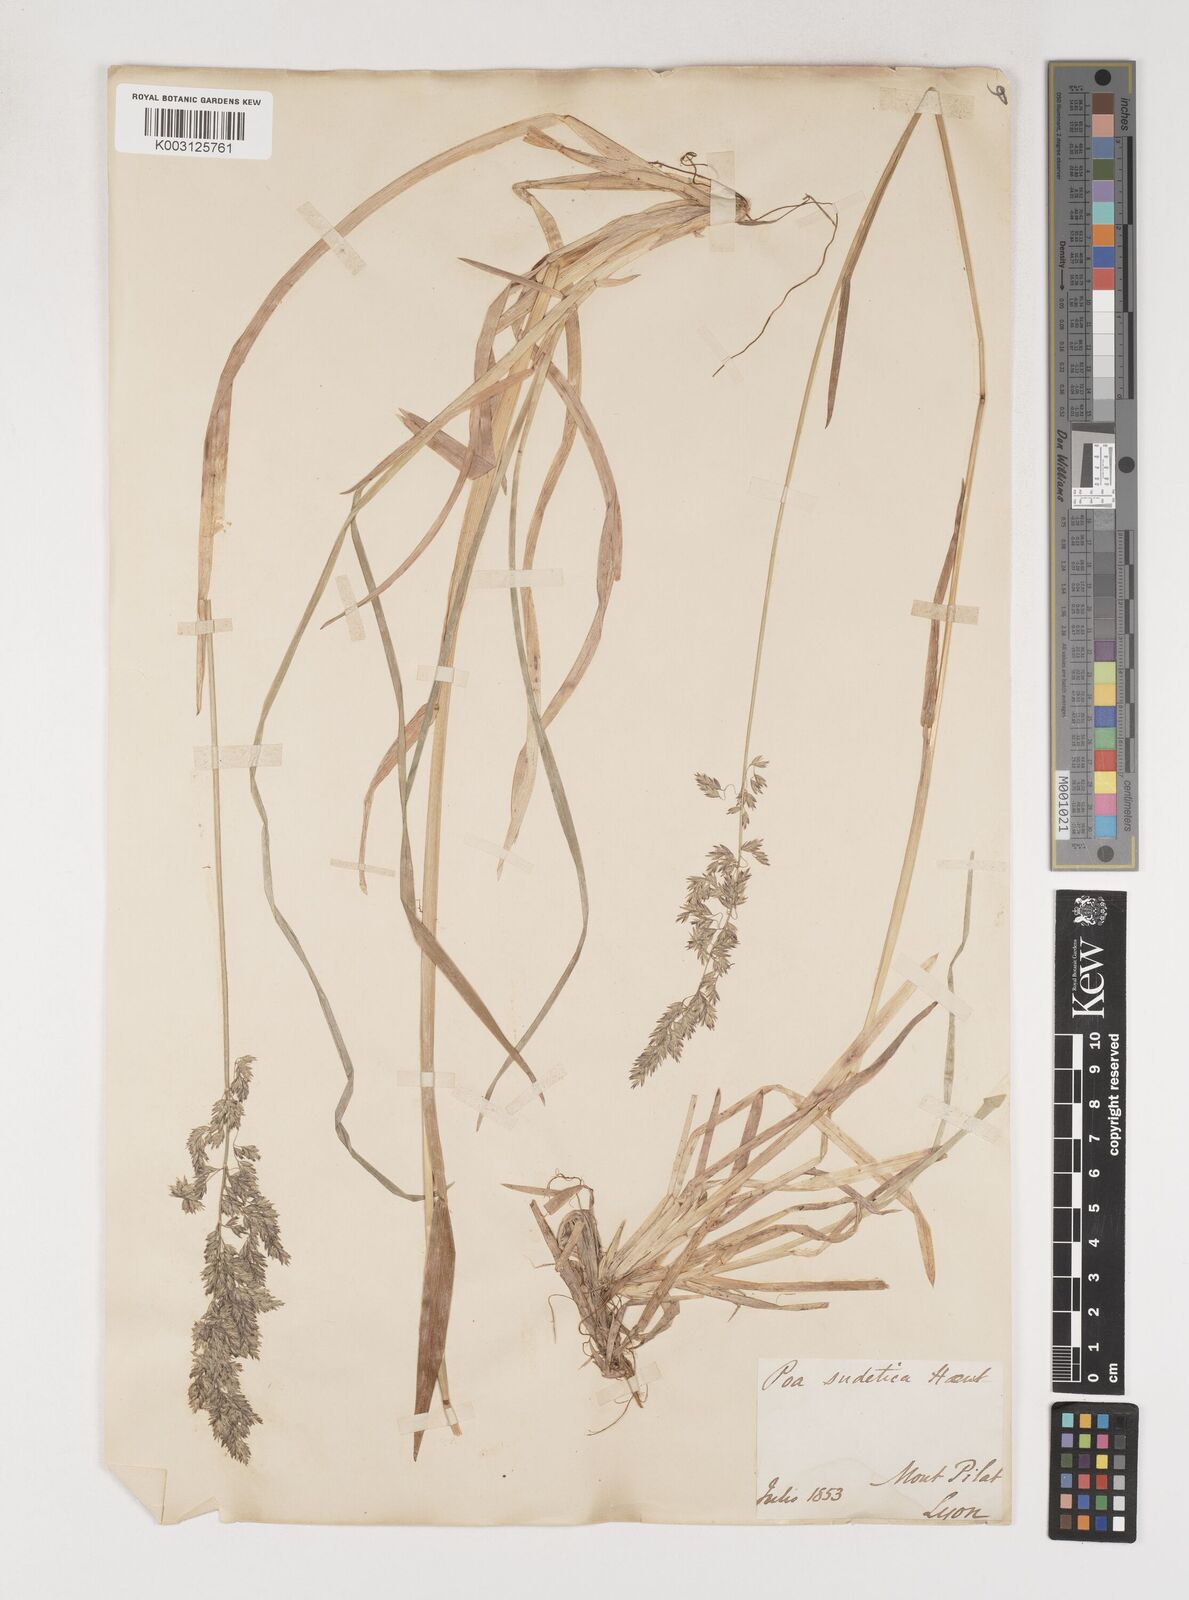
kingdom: Plantae
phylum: Tracheophyta
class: Liliopsida
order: Poales
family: Poaceae
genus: Poa
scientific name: Poa chaixii
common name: Broad-leaved meadow-grass
